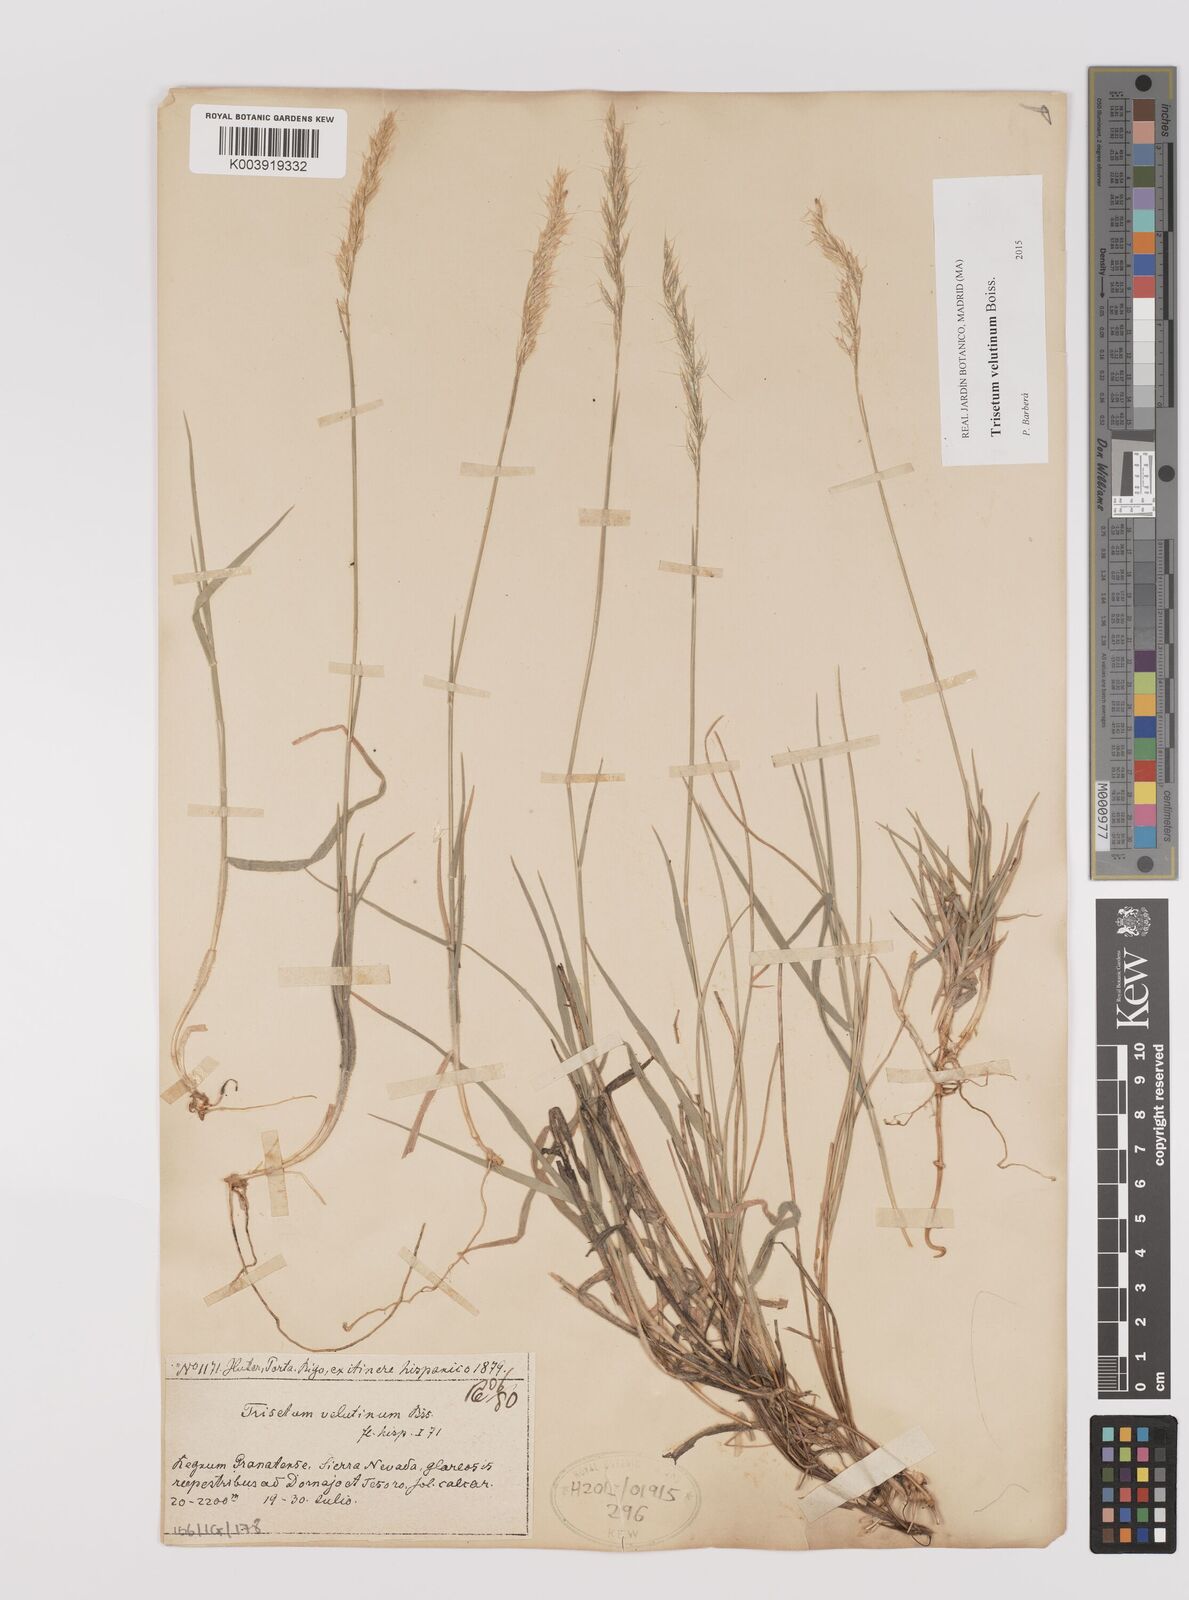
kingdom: Plantae
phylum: Tracheophyta
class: Liliopsida
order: Poales
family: Poaceae
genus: Trisetum
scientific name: Trisetum velutinum
